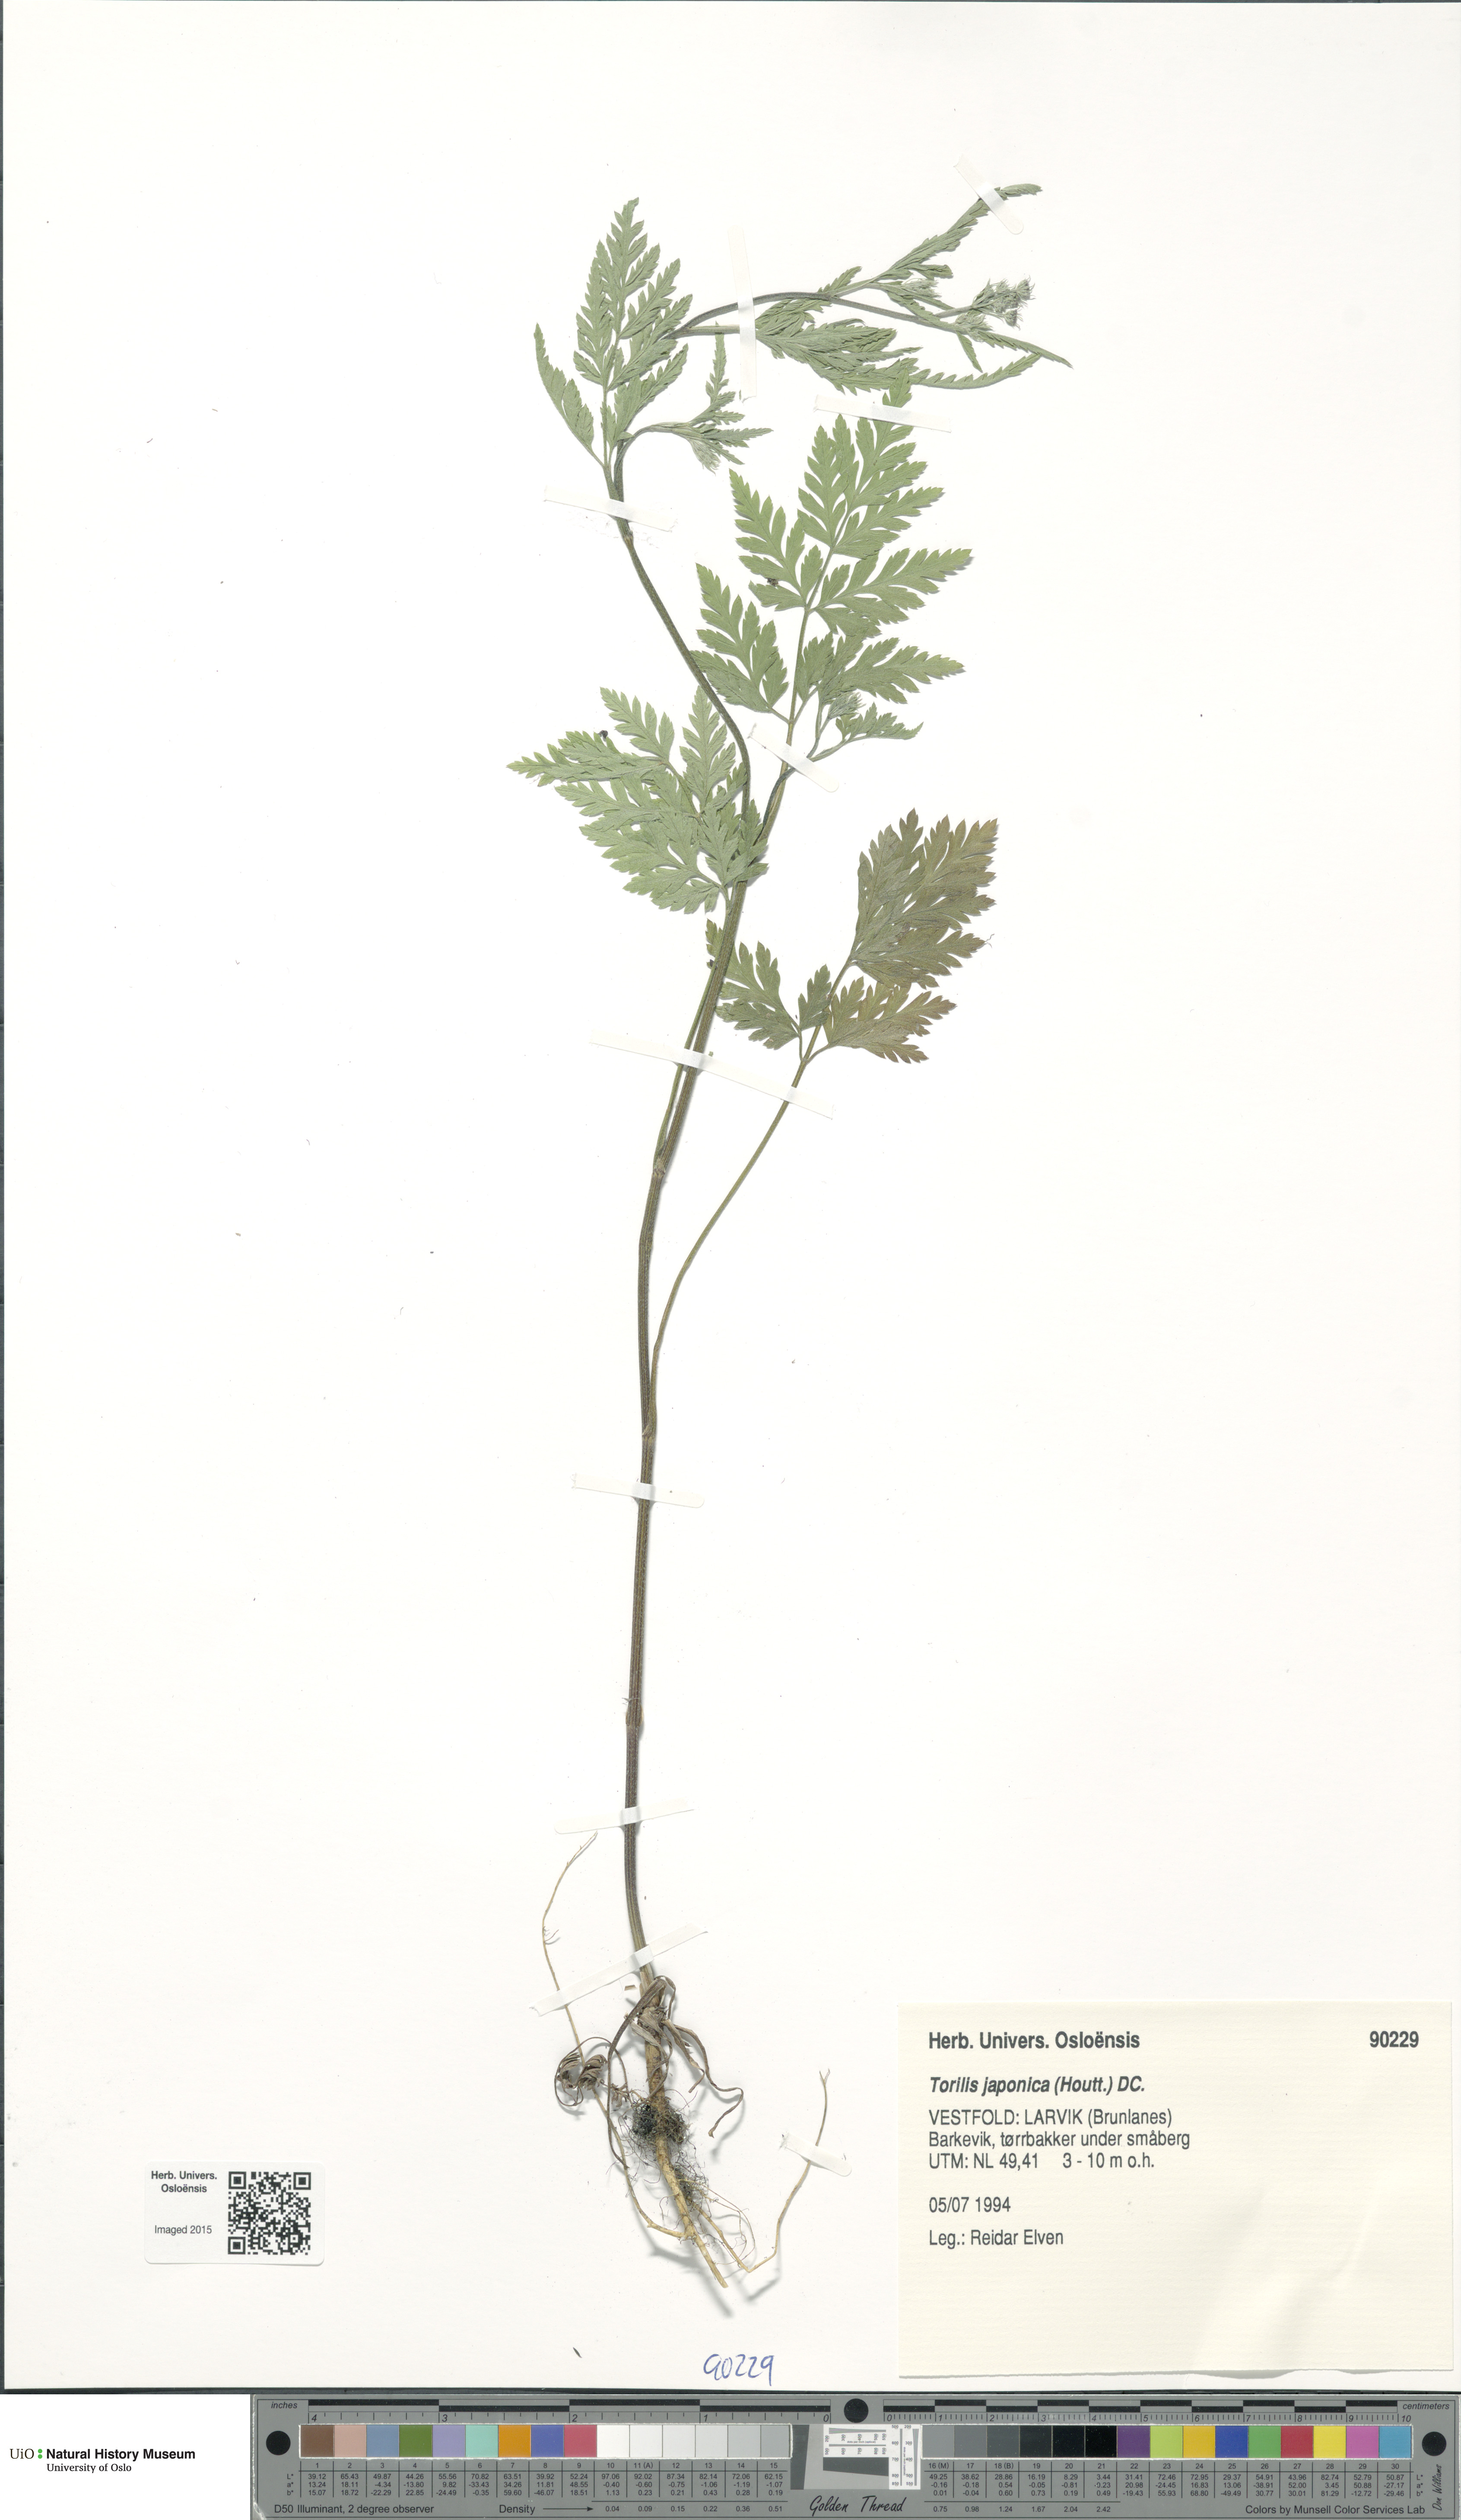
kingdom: Plantae
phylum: Tracheophyta
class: Magnoliopsida
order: Apiales
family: Apiaceae
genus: Torilis
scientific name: Torilis japonica
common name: Upright hedge-parsley
